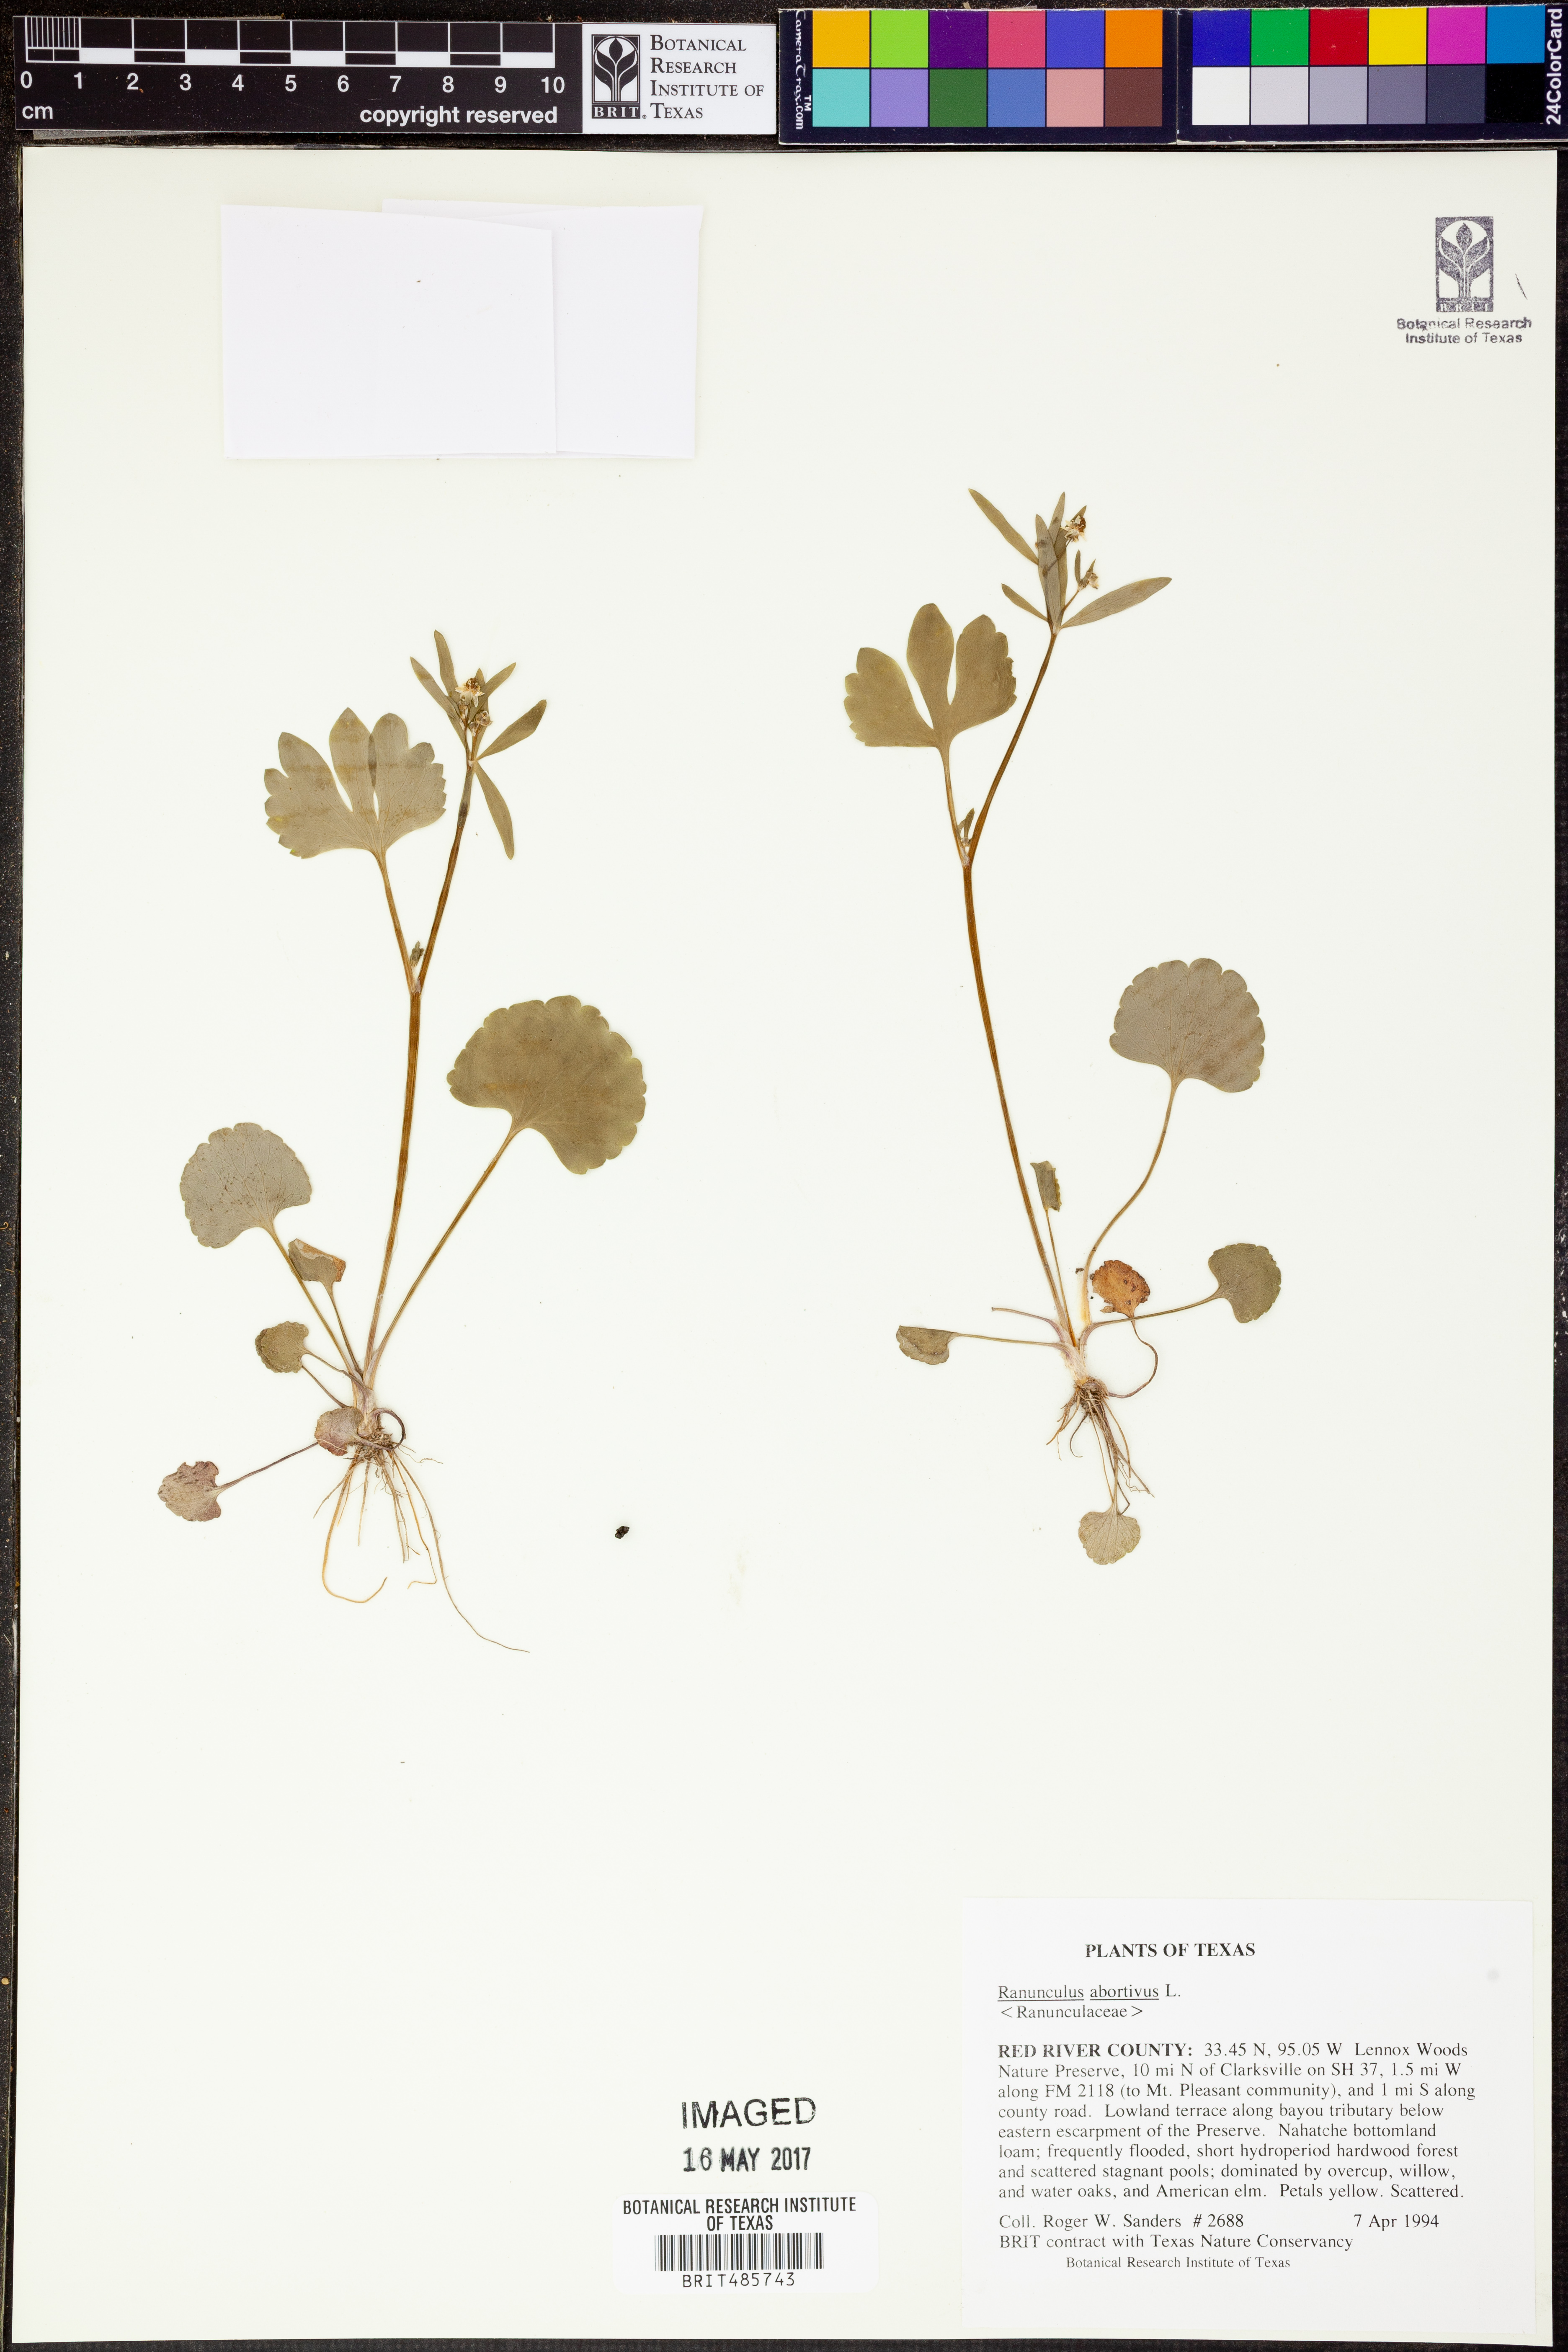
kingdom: Plantae
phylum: Tracheophyta
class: Magnoliopsida
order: Ranunculales
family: Ranunculaceae
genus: Ranunculus
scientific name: Ranunculus abortivus
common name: Early wood buttercup
